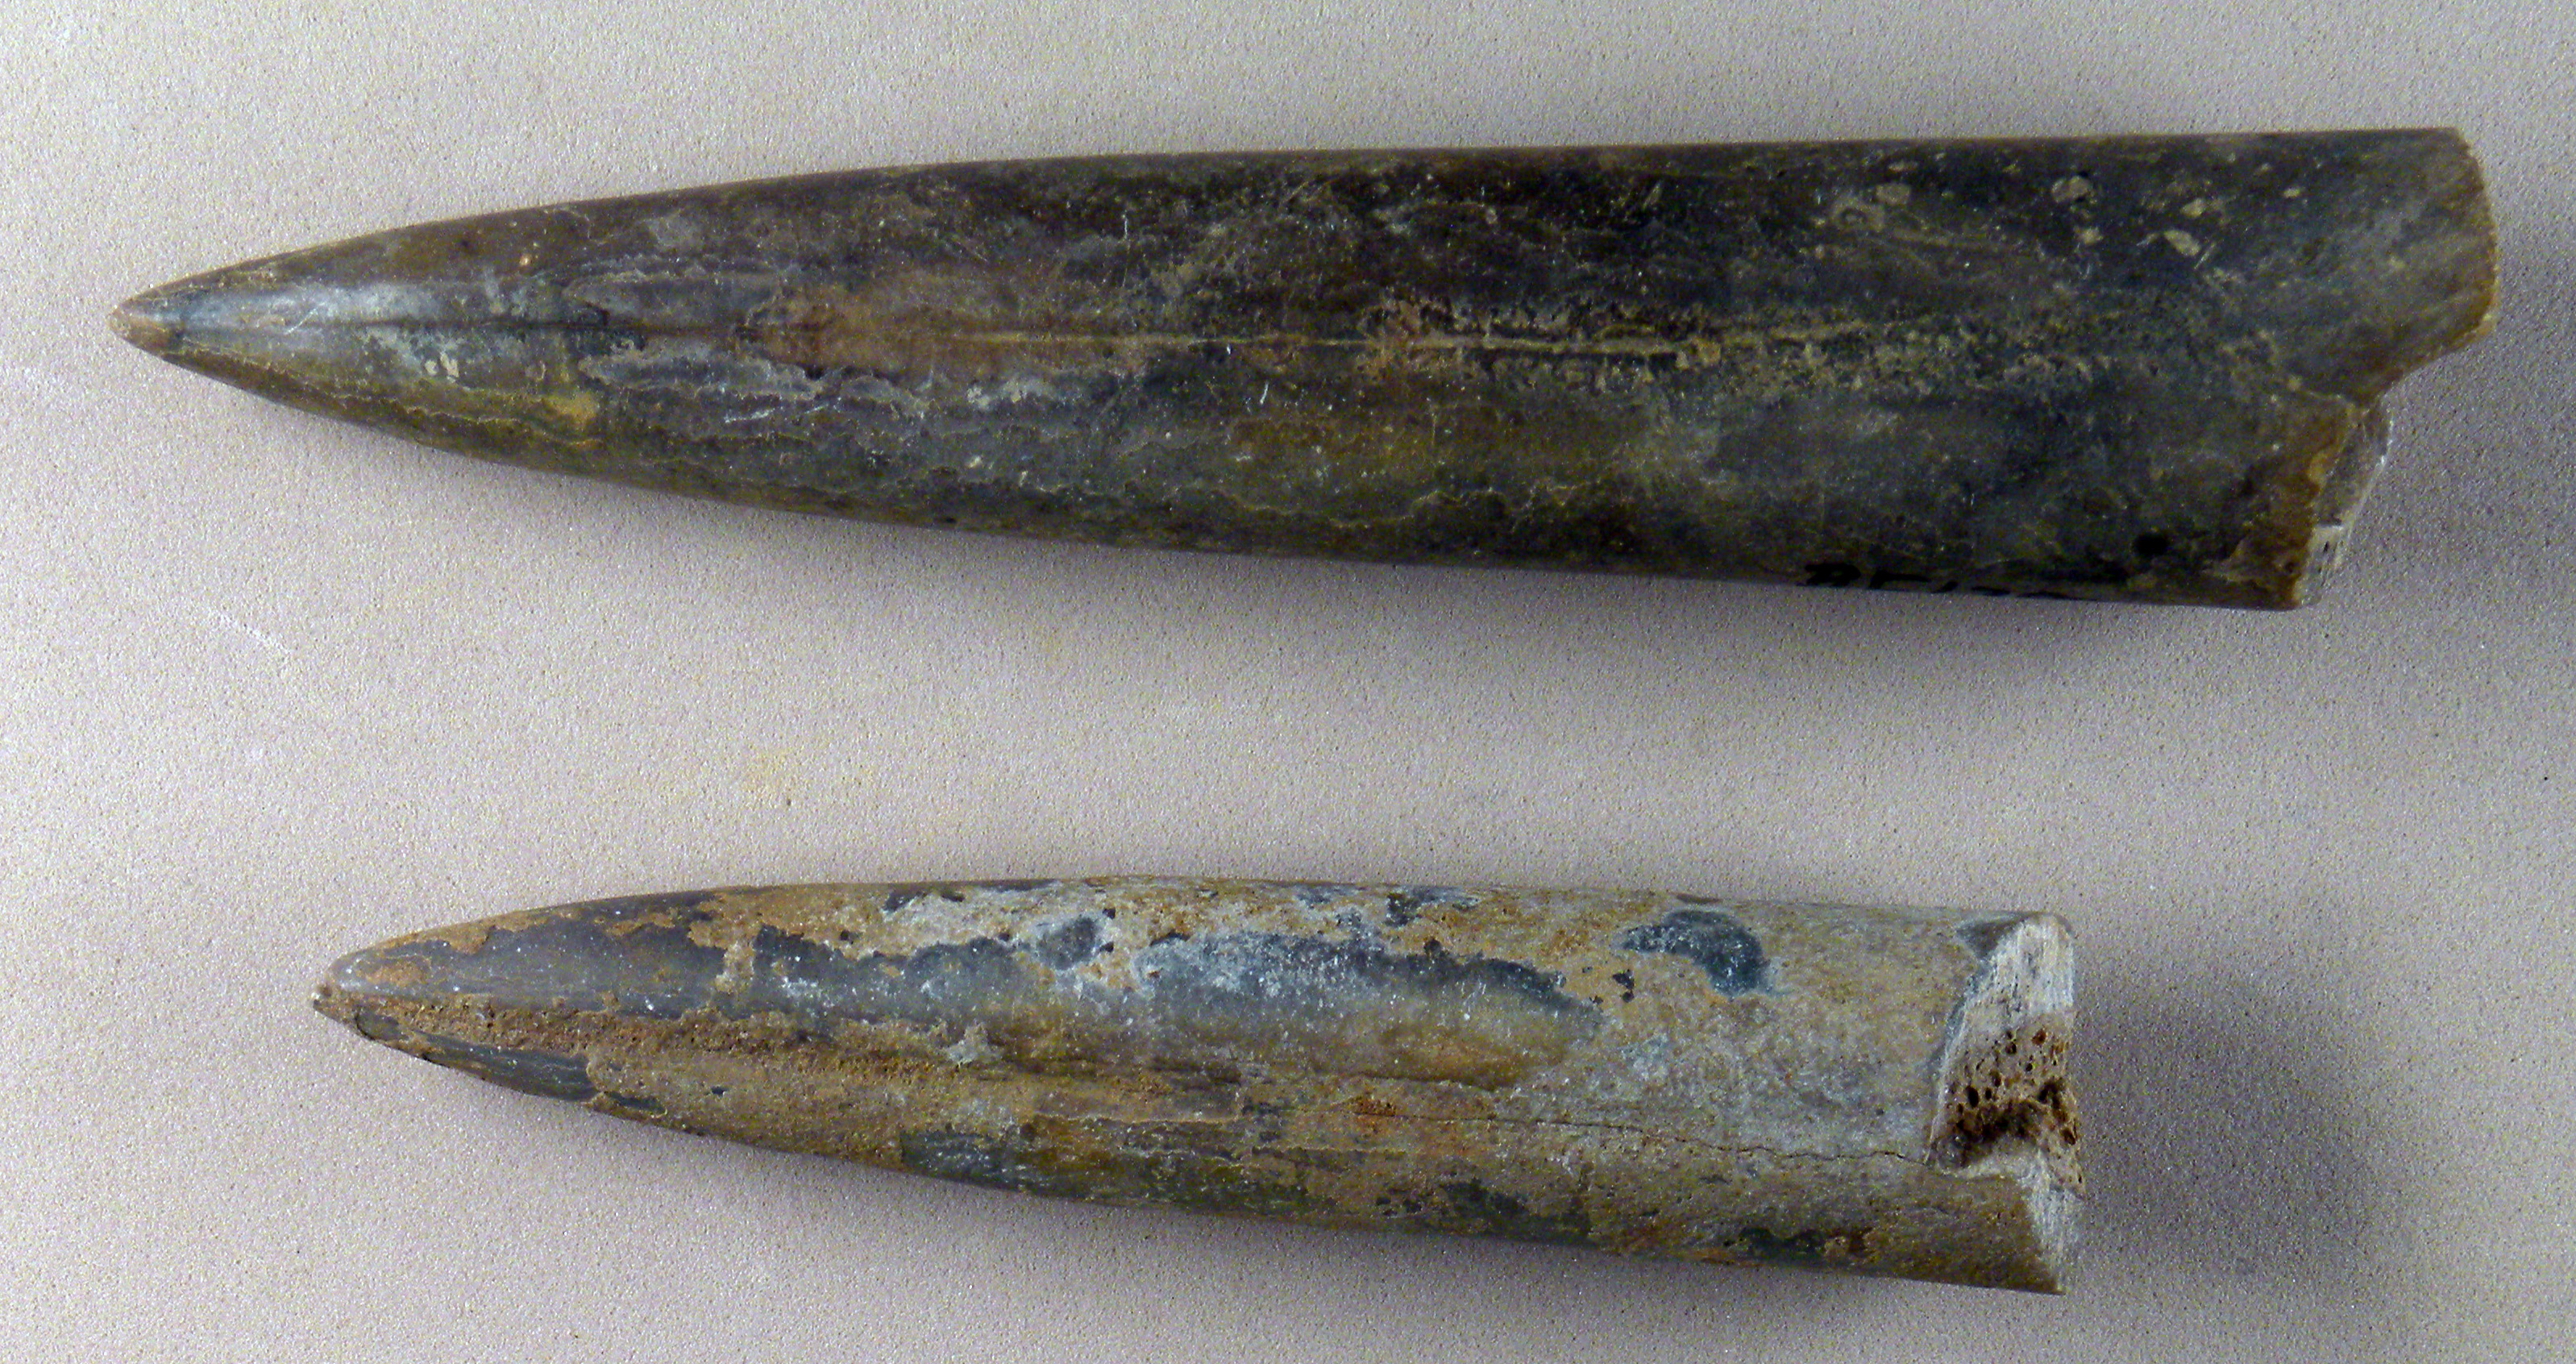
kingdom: Animalia
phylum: Mollusca
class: Cephalopoda
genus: Holcobeloides
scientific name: Holcobeloides
